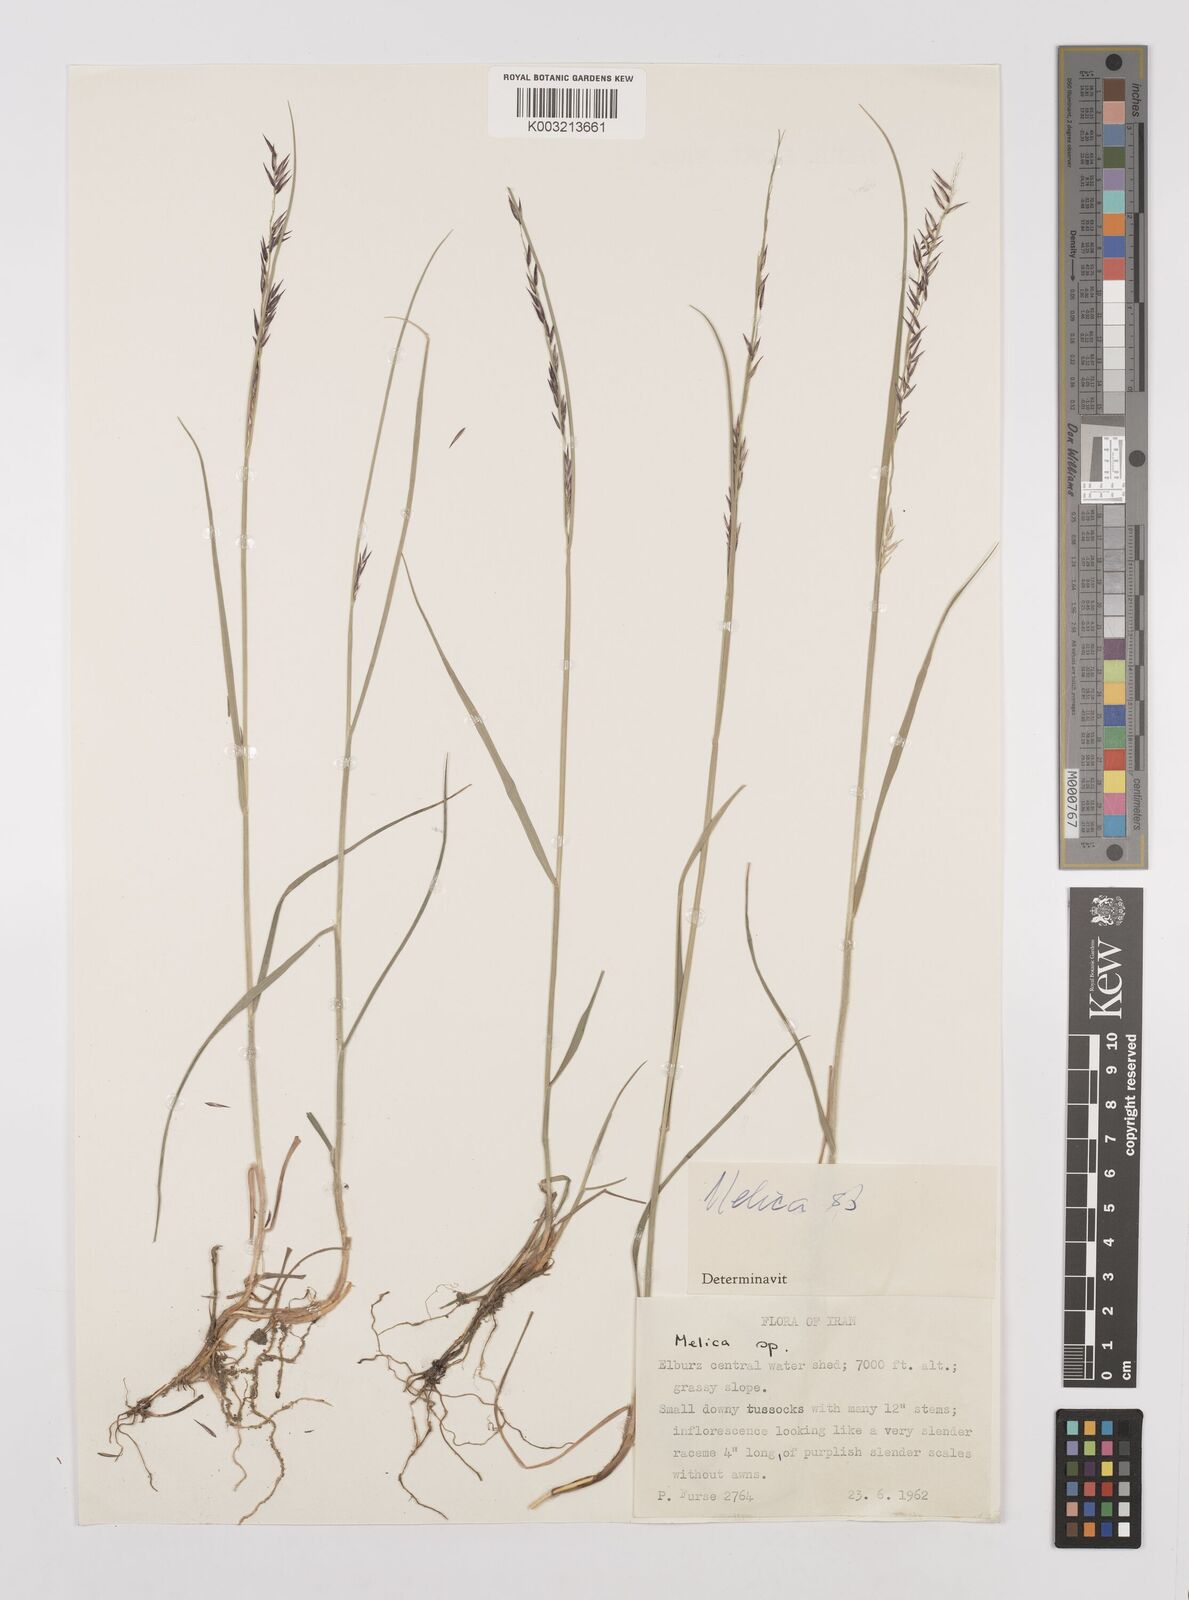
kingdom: Plantae
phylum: Tracheophyta
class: Liliopsida
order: Poales
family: Poaceae
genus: Melica
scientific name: Melica
